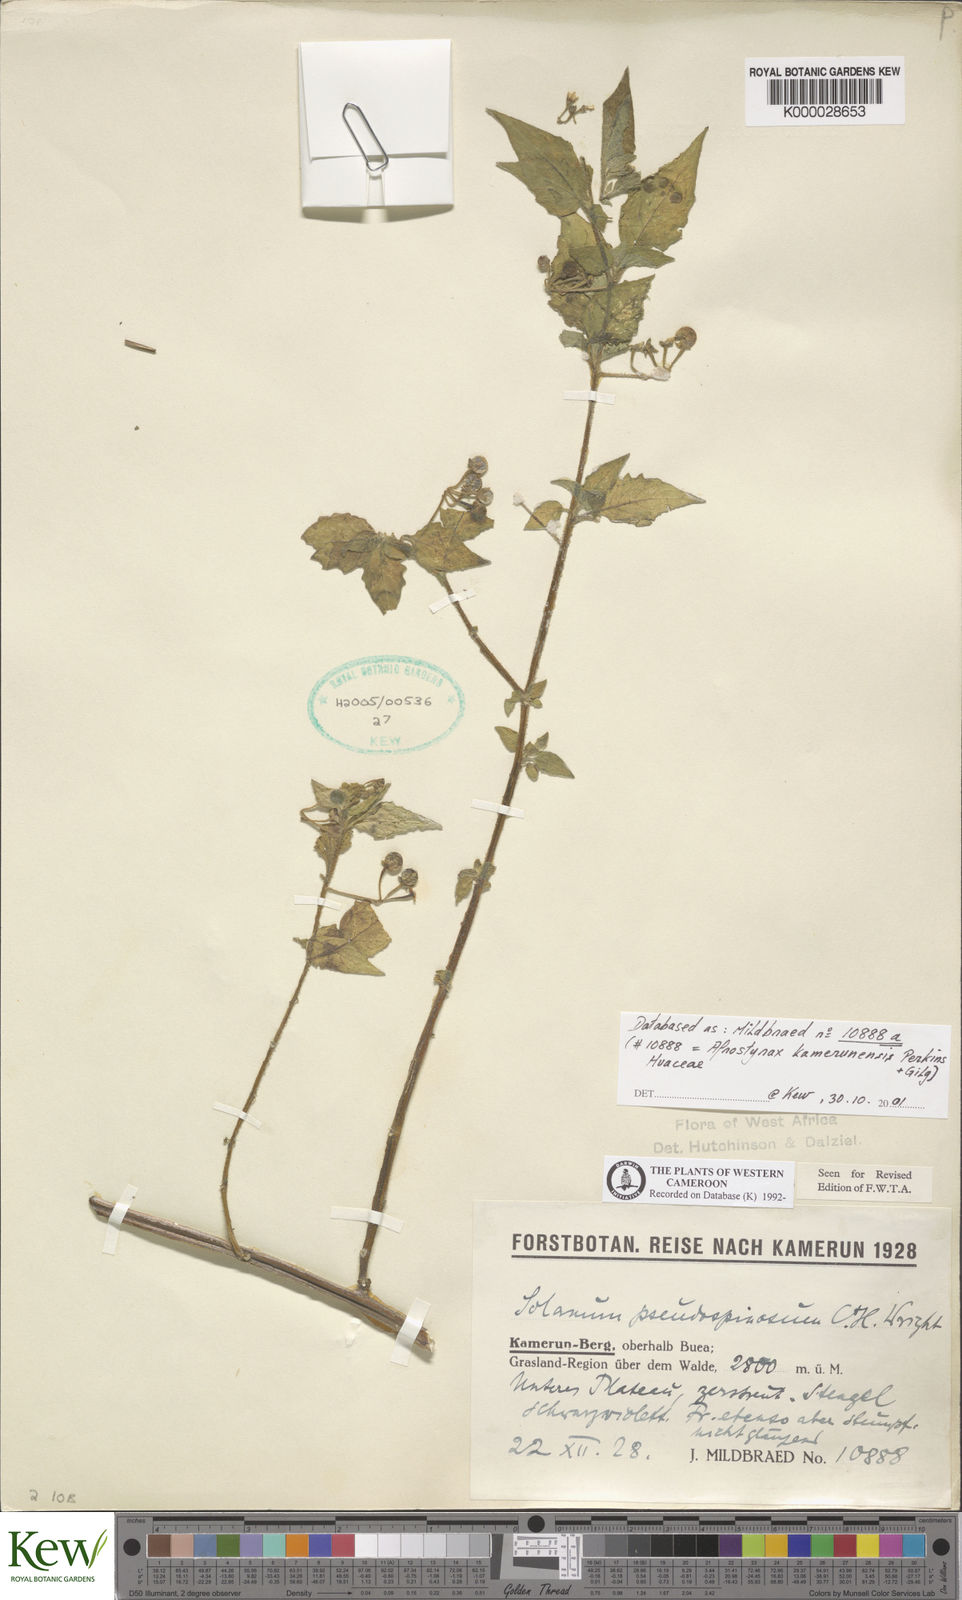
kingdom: Plantae
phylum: Tracheophyta
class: Magnoliopsida
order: Solanales
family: Solanaceae
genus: Solanum
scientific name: Solanum pseudospinosum
